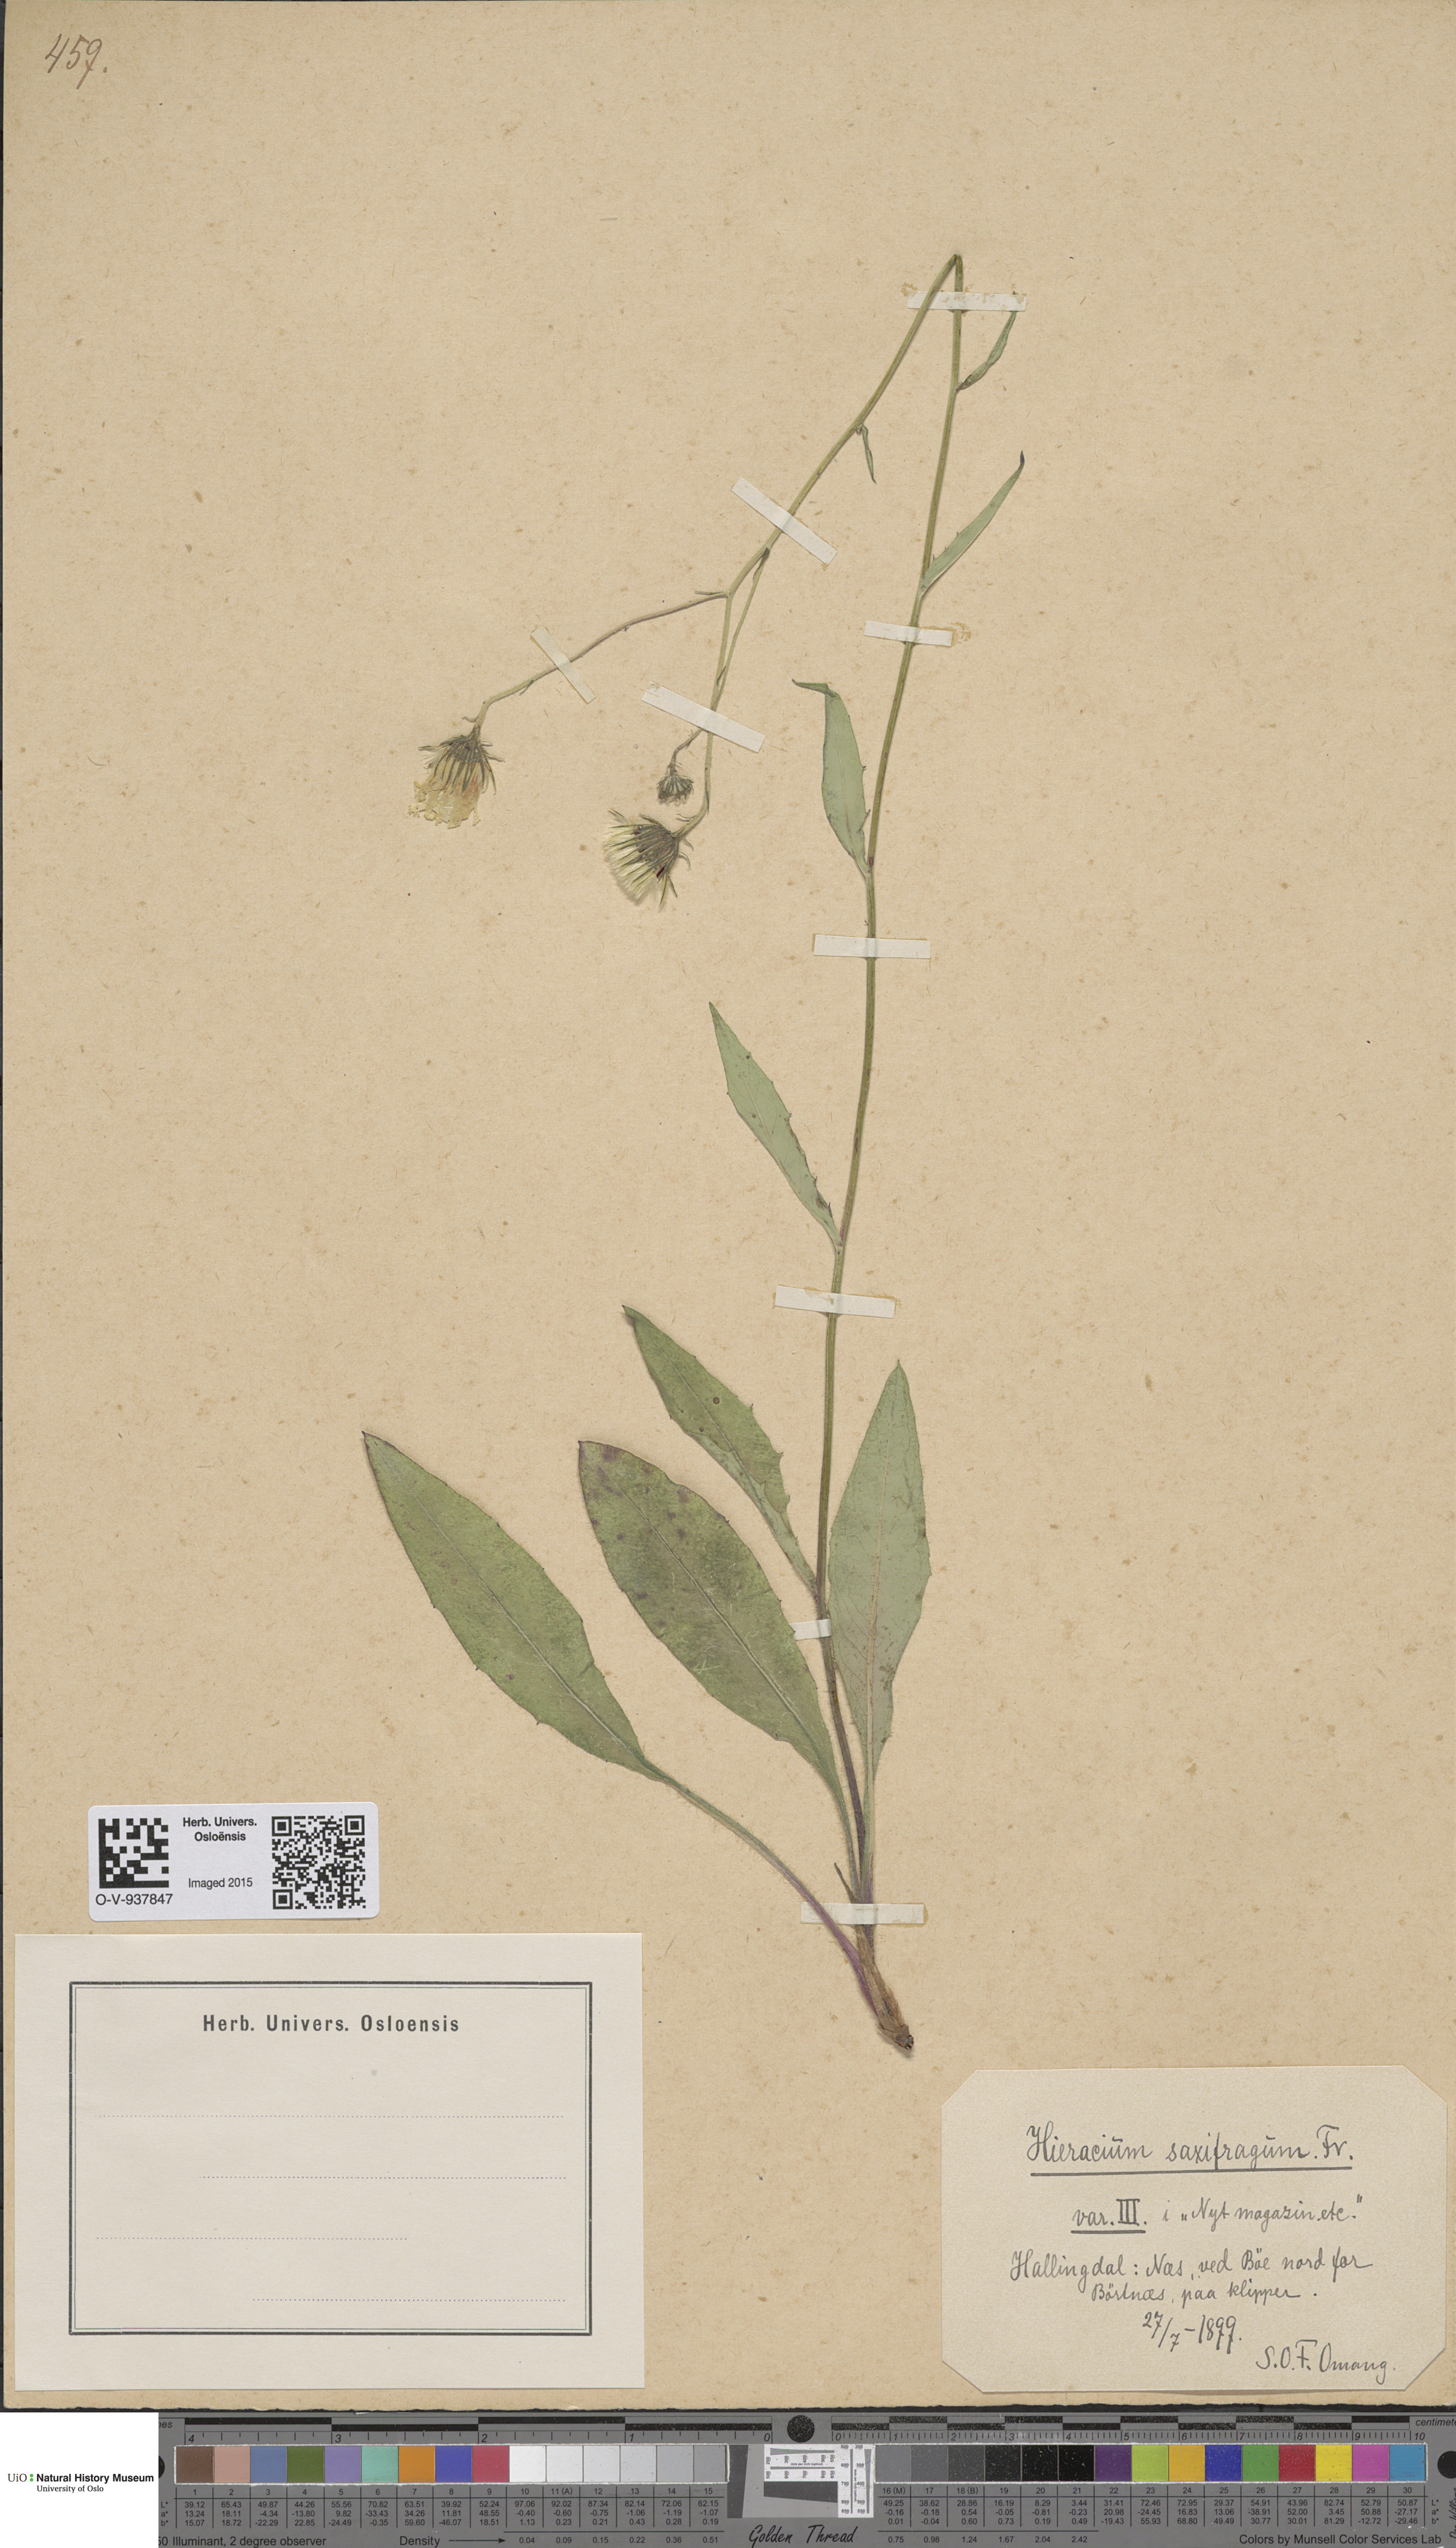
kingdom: Plantae
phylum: Tracheophyta
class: Magnoliopsida
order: Asterales
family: Asteraceae
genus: Hieracium
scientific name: Hieracium saxifragum
